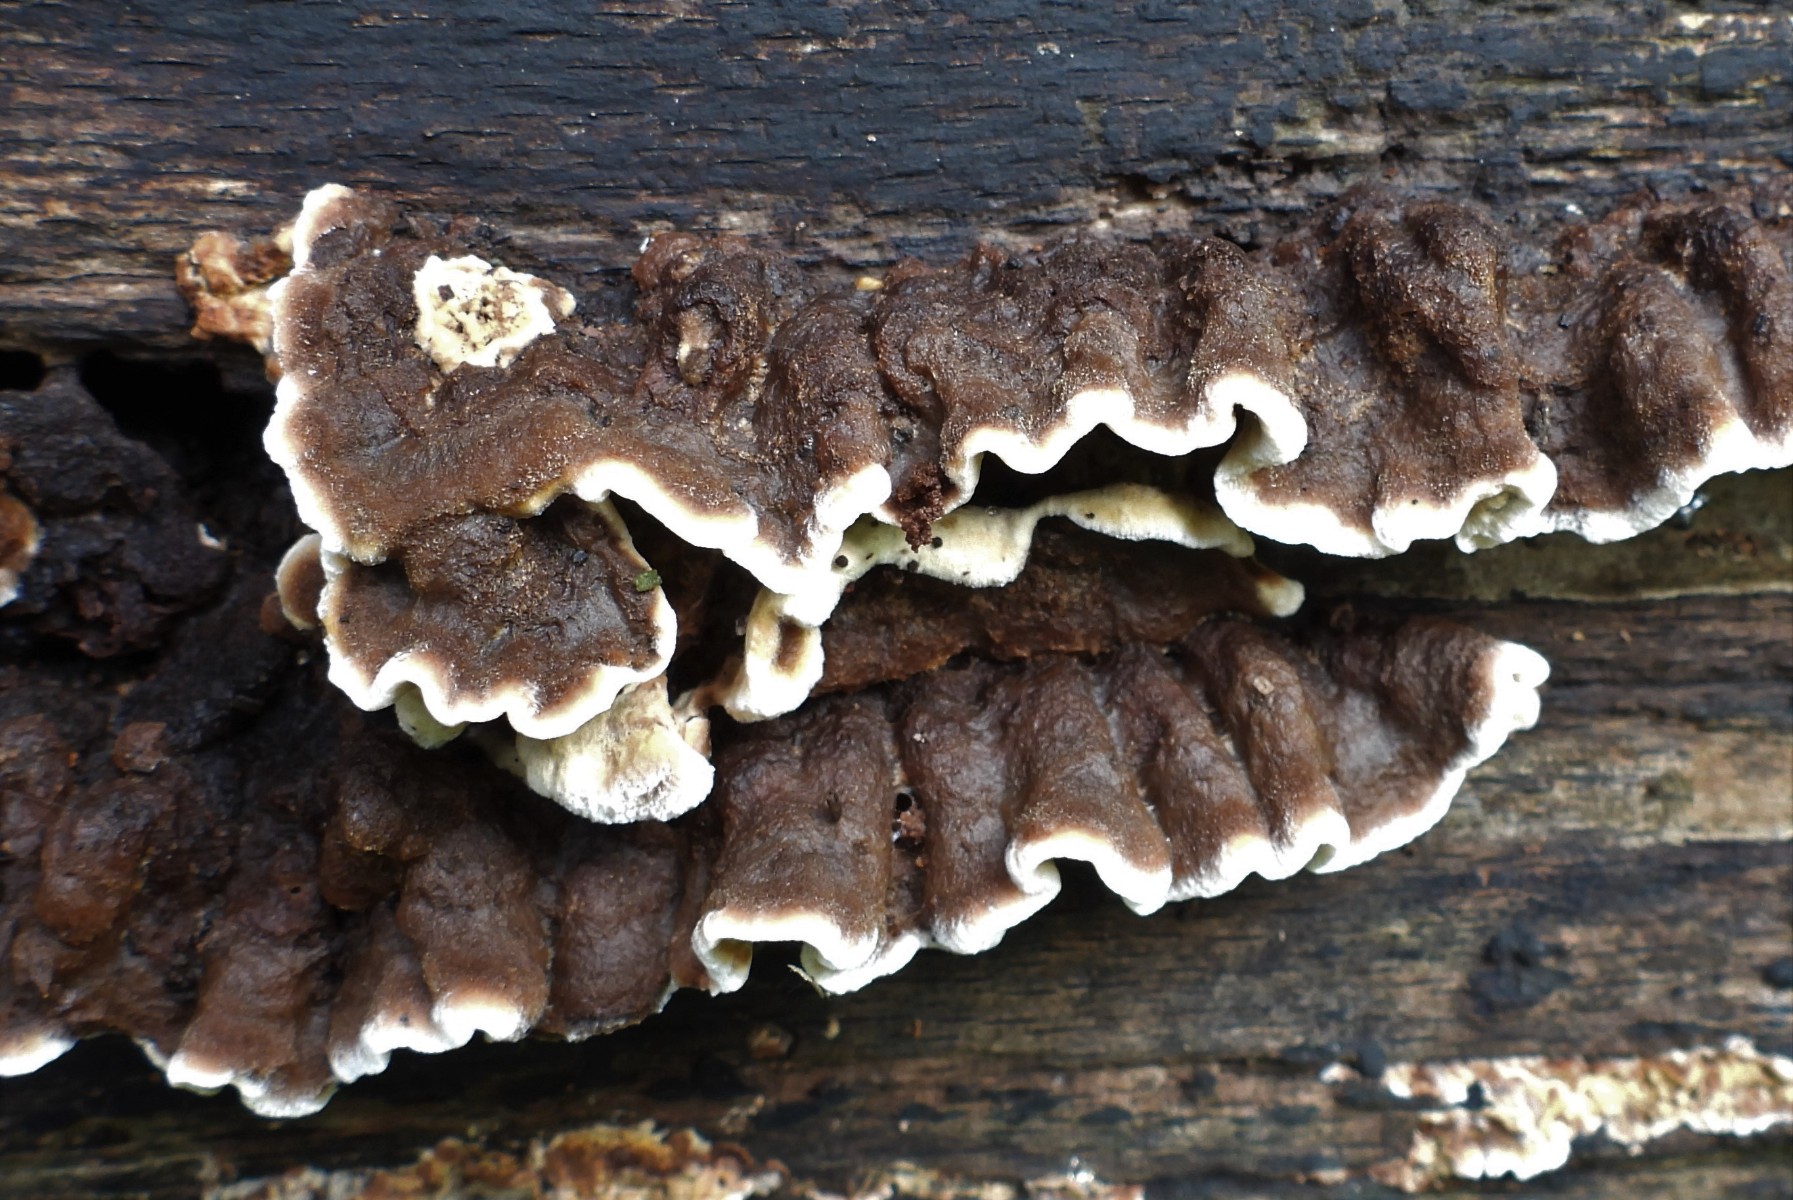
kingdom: Fungi
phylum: Basidiomycota
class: Agaricomycetes
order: Russulales
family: Hericiaceae
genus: Laxitextum
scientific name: Laxitextum bicolor
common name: tvefarvet filtskind
